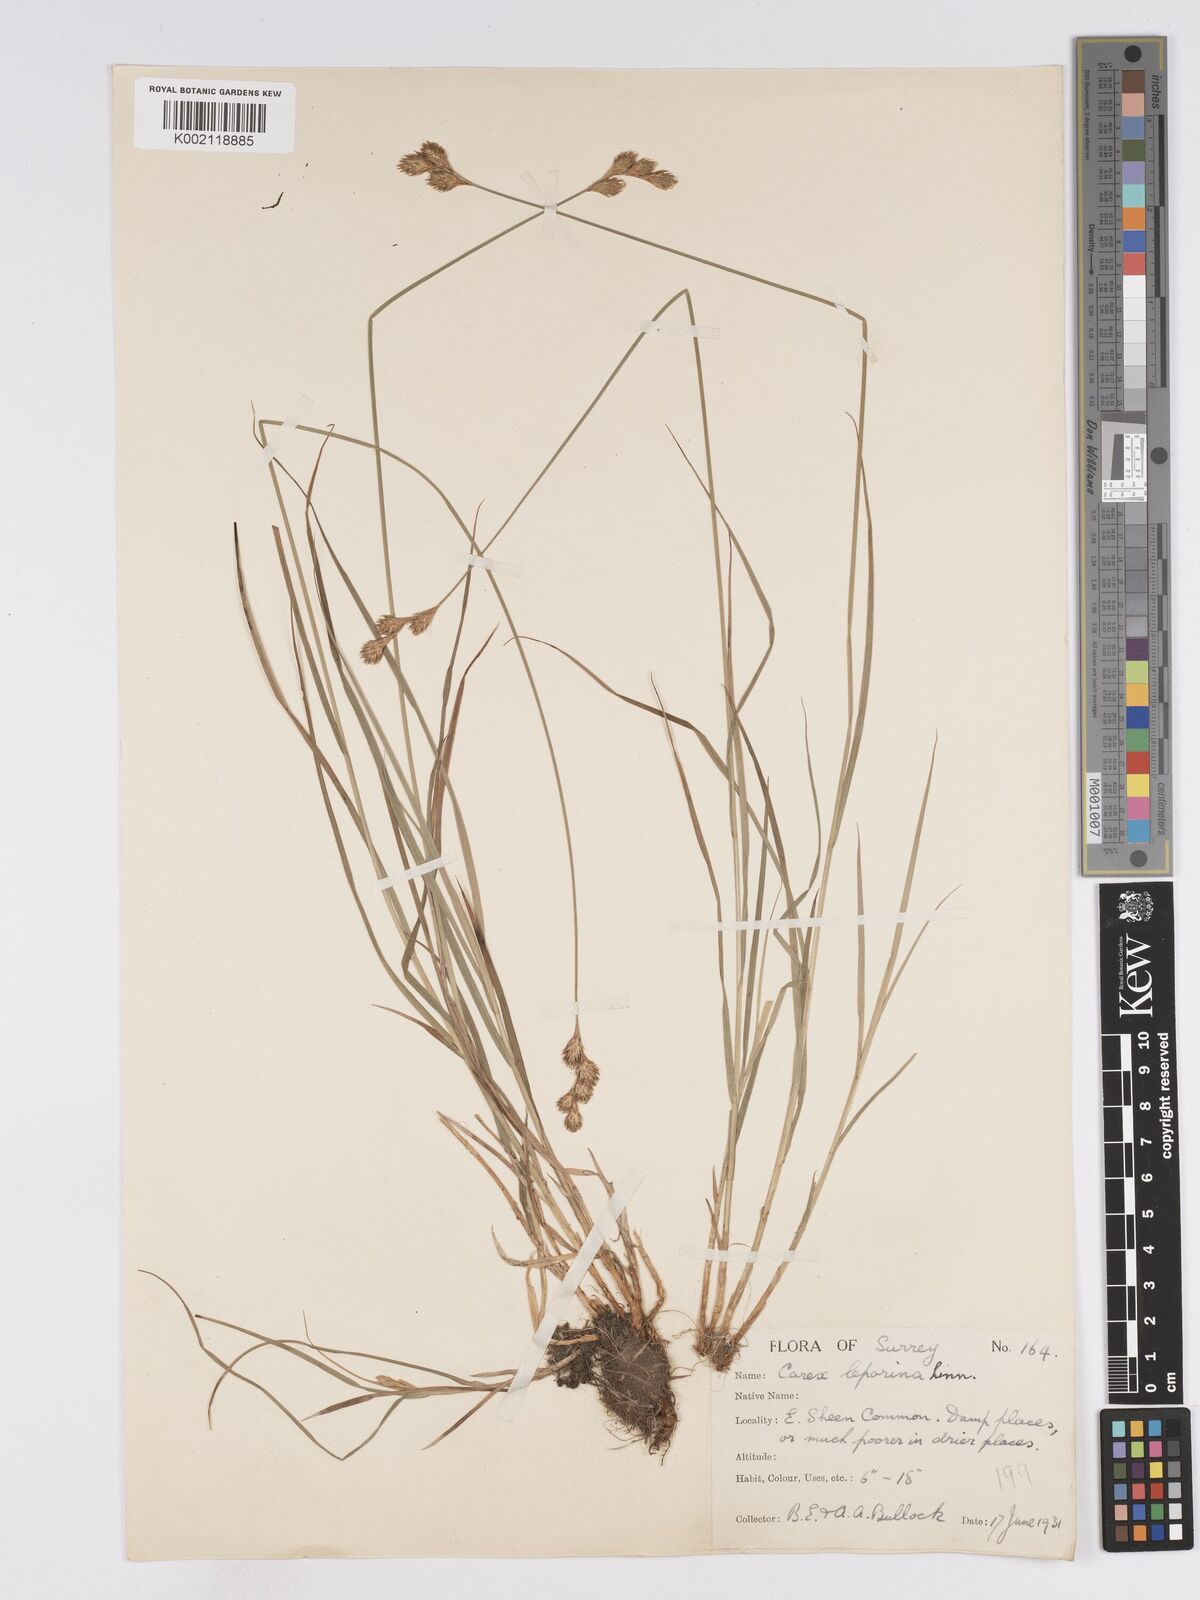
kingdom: Plantae
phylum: Tracheophyta
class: Liliopsida
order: Poales
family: Cyperaceae
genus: Carex
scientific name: Carex leporina
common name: Oval sedge
